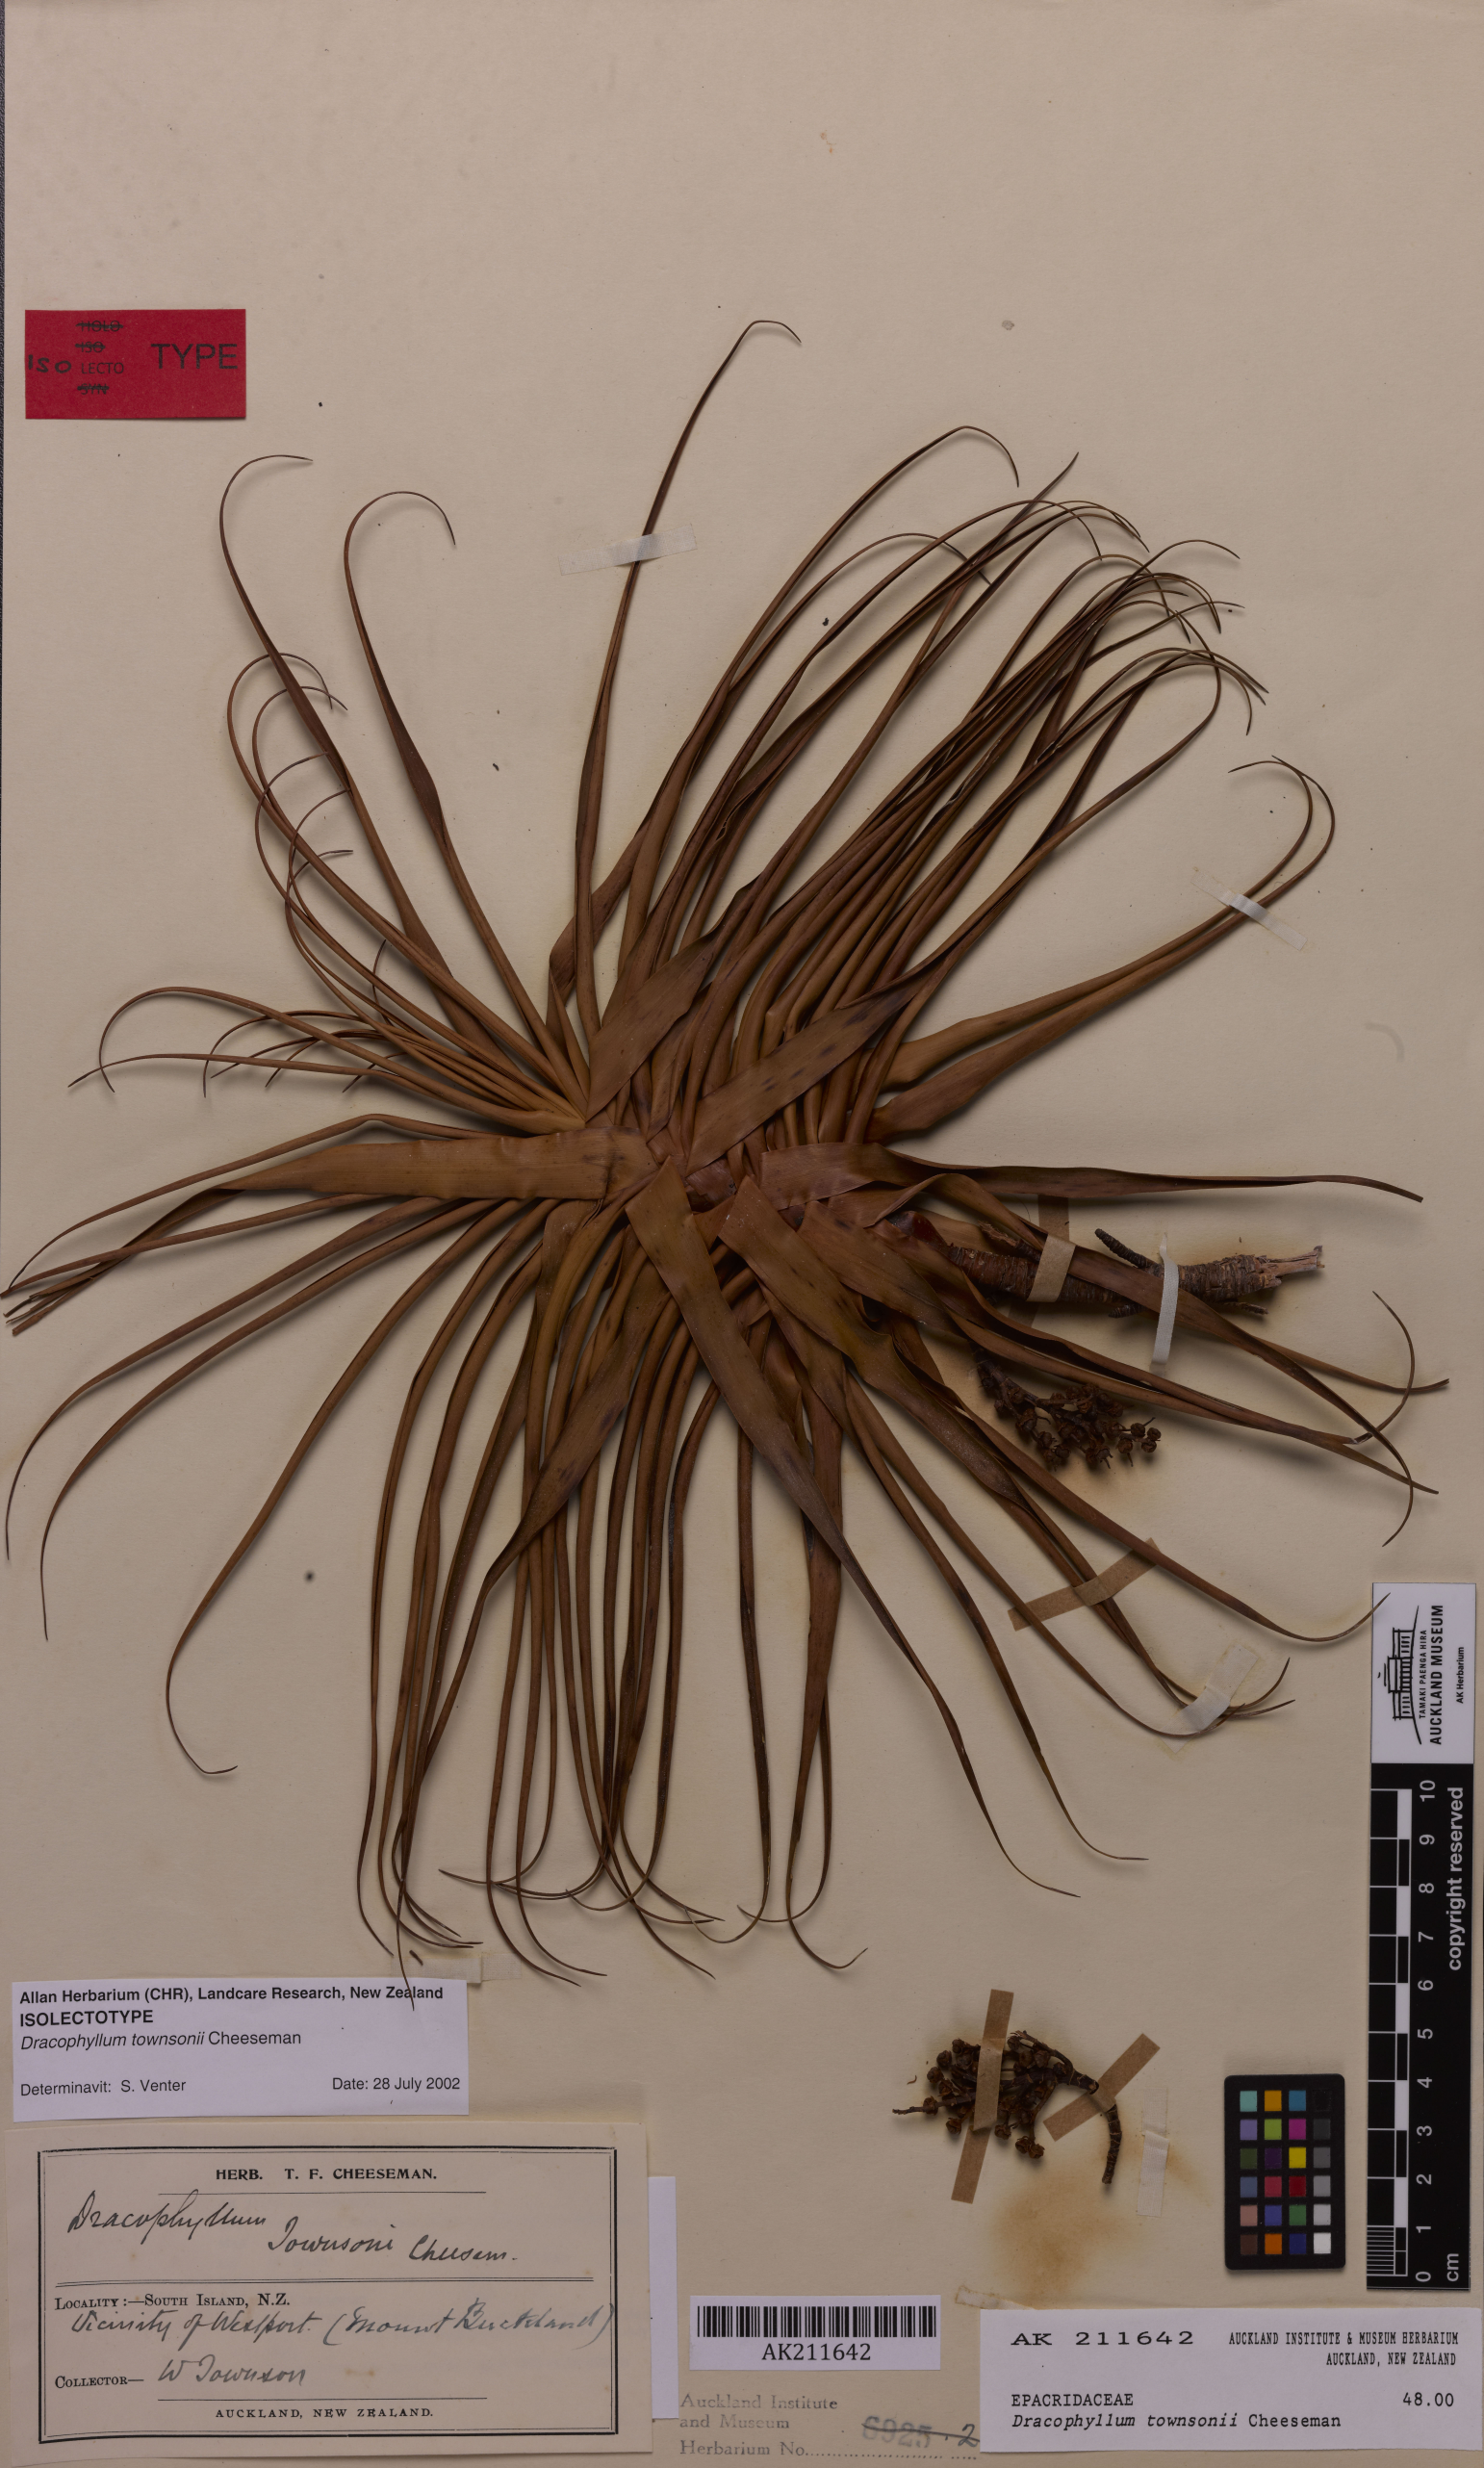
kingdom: Plantae
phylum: Tracheophyta
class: Magnoliopsida
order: Ericales
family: Ericaceae
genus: Dracophyllum
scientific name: Dracophyllum townsonii
